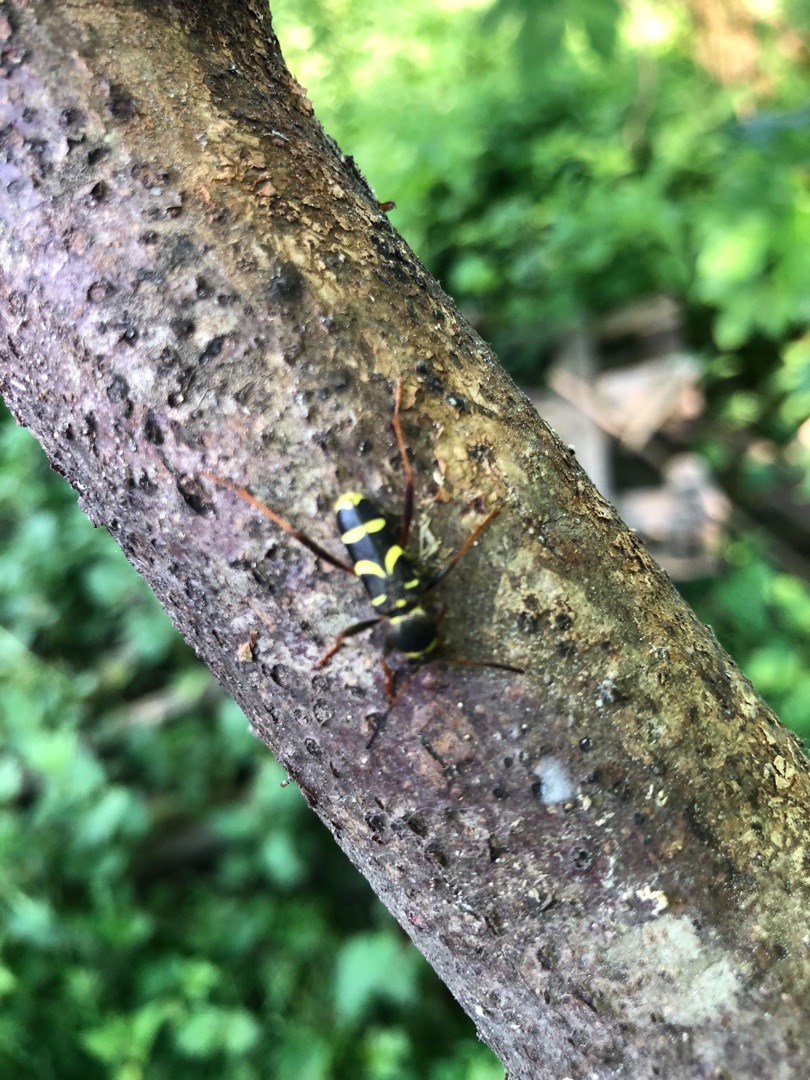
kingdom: Animalia
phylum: Arthropoda
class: Insecta
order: Coleoptera
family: Cerambycidae
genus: Clytus
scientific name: Clytus arietis
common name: Lille hvepsebuk
